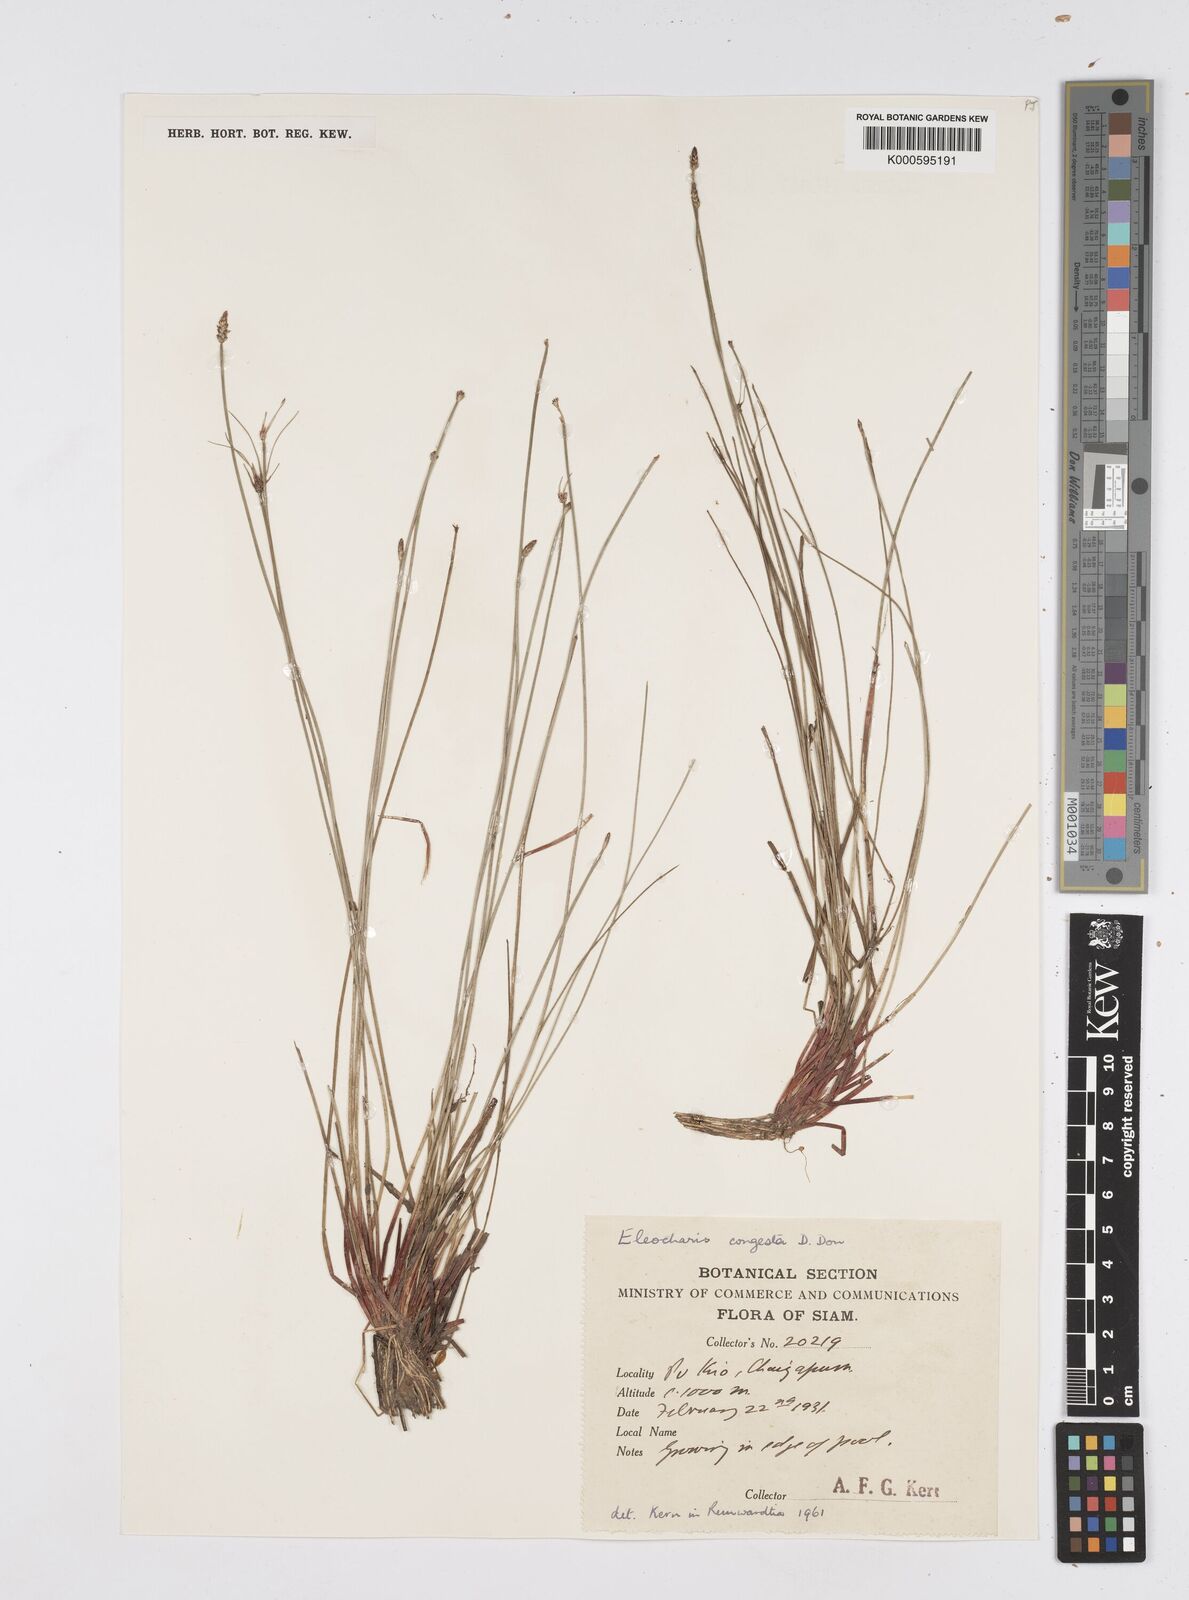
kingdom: Plantae
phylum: Tracheophyta
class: Liliopsida
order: Poales
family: Cyperaceae
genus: Eleocharis
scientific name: Eleocharis congesta
